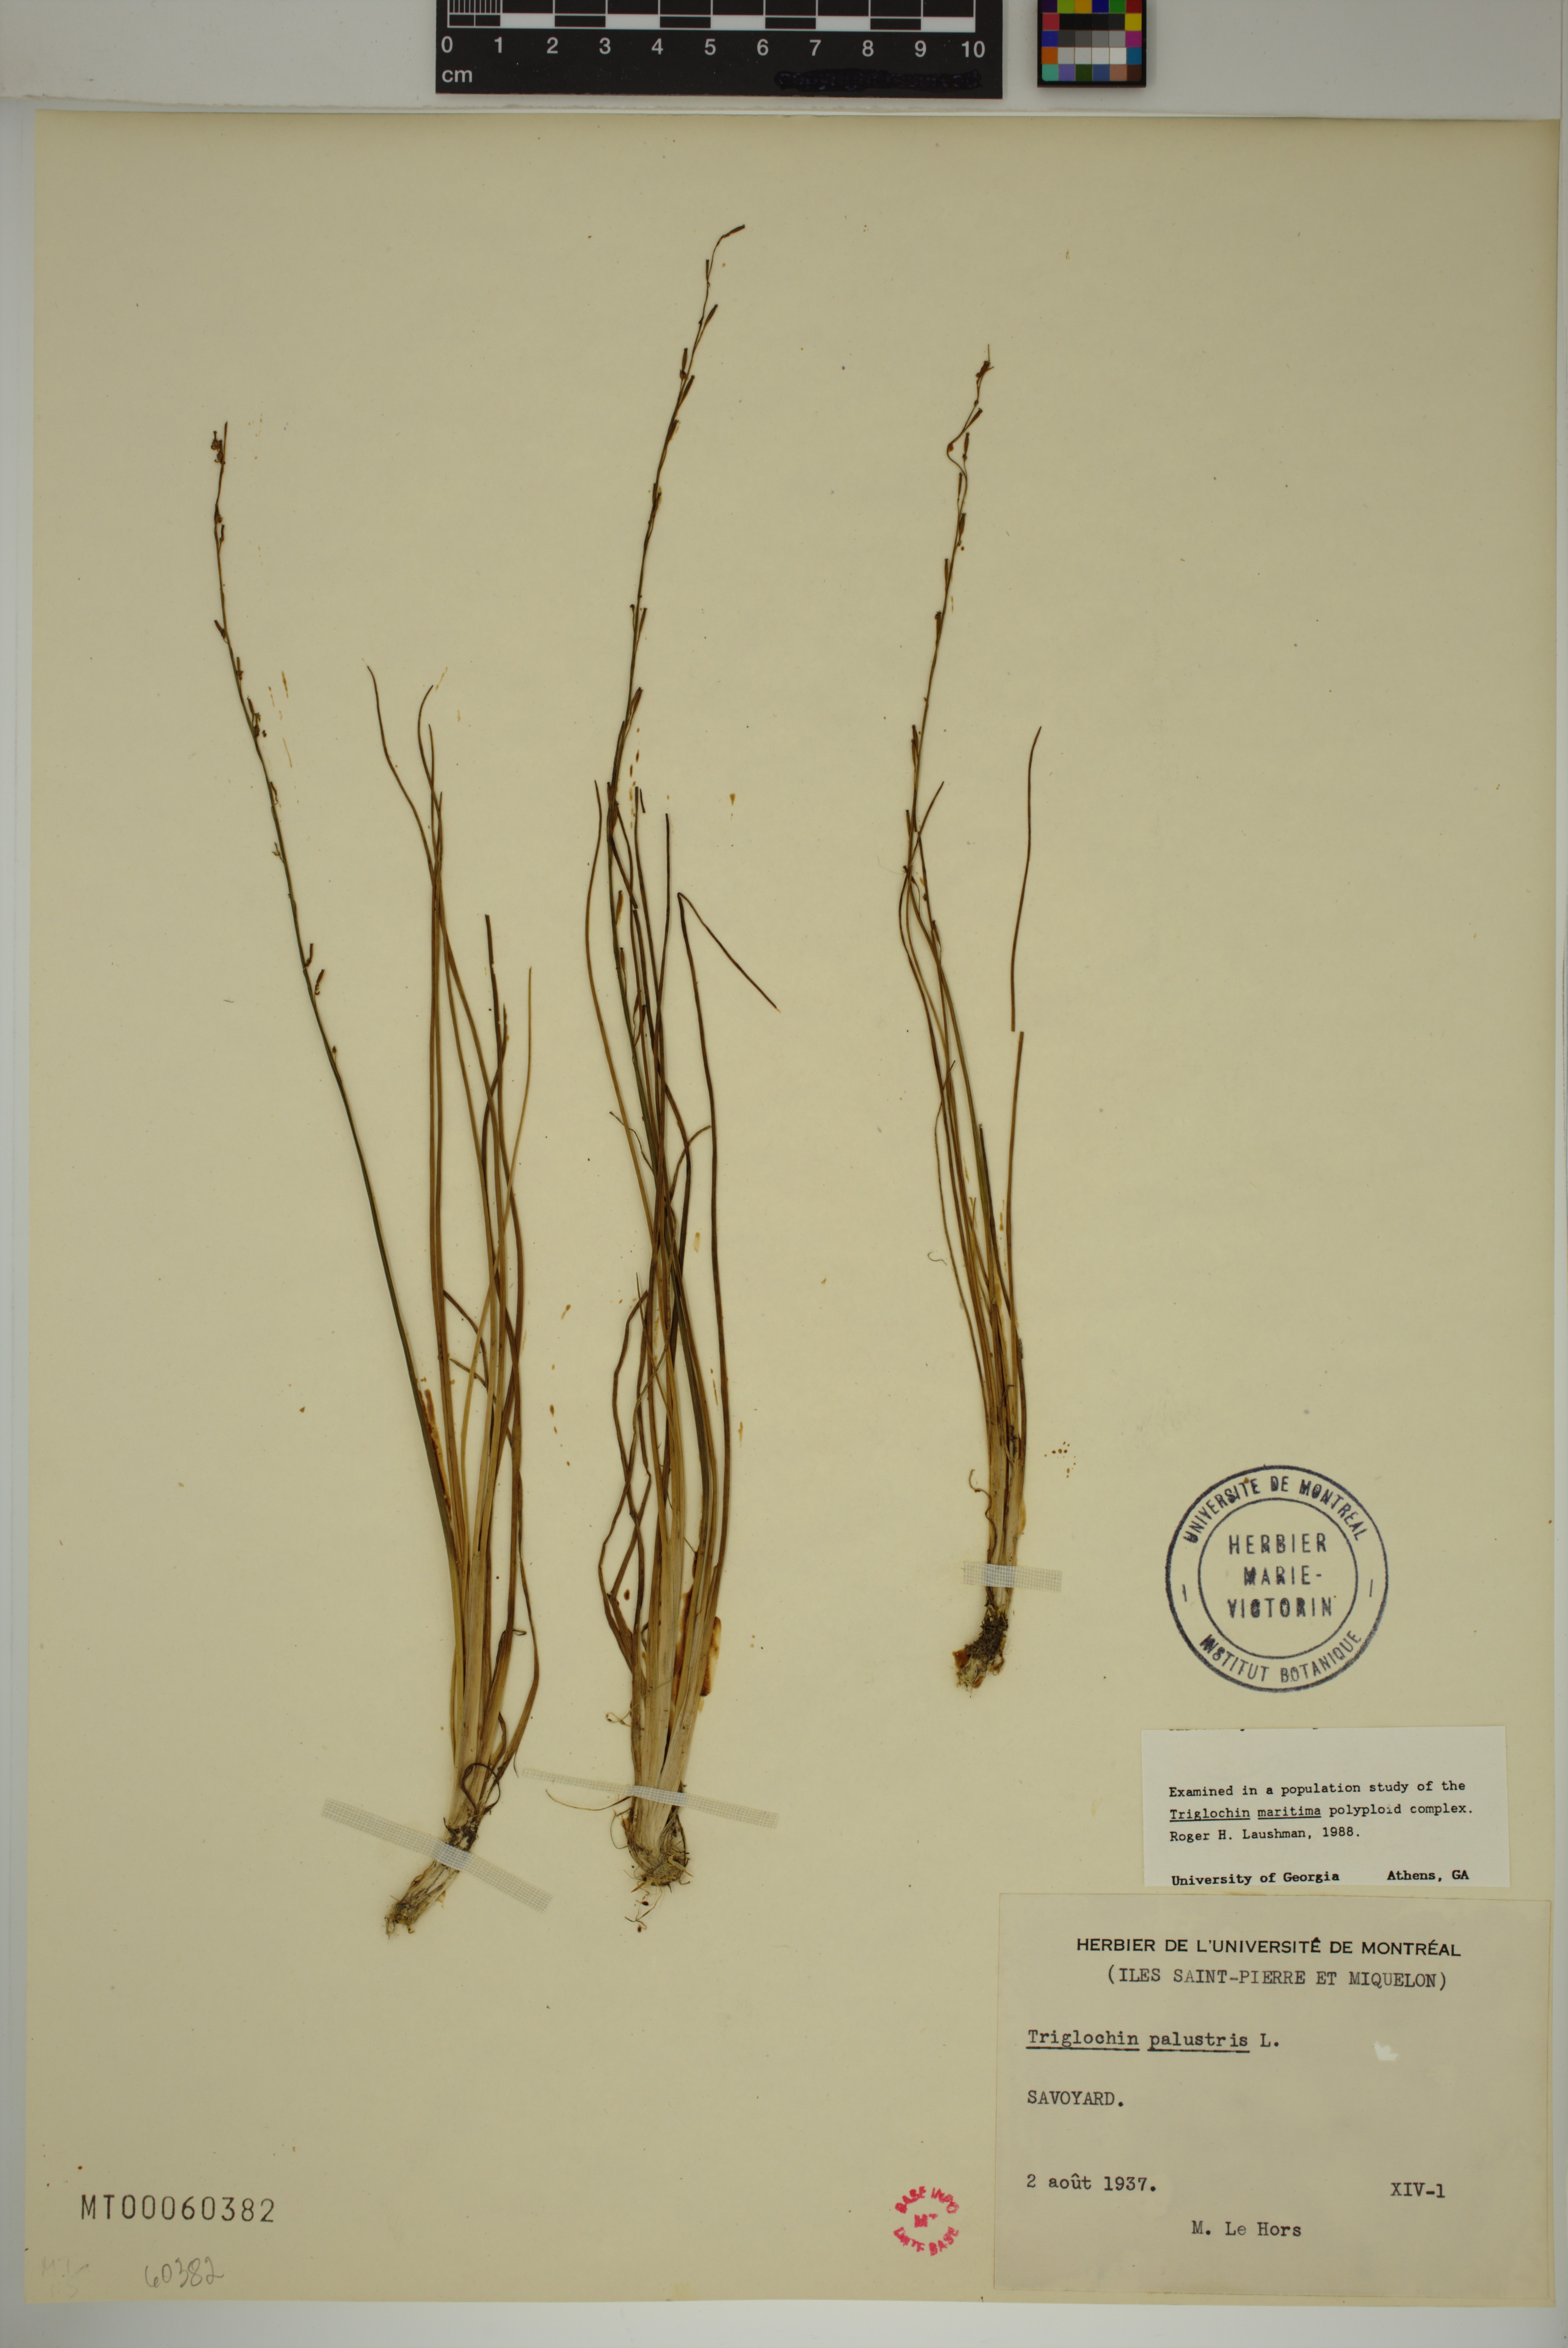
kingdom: Plantae
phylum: Tracheophyta
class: Liliopsida
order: Alismatales
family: Juncaginaceae
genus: Triglochin
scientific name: Triglochin palustris
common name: Marsh arrowgrass
